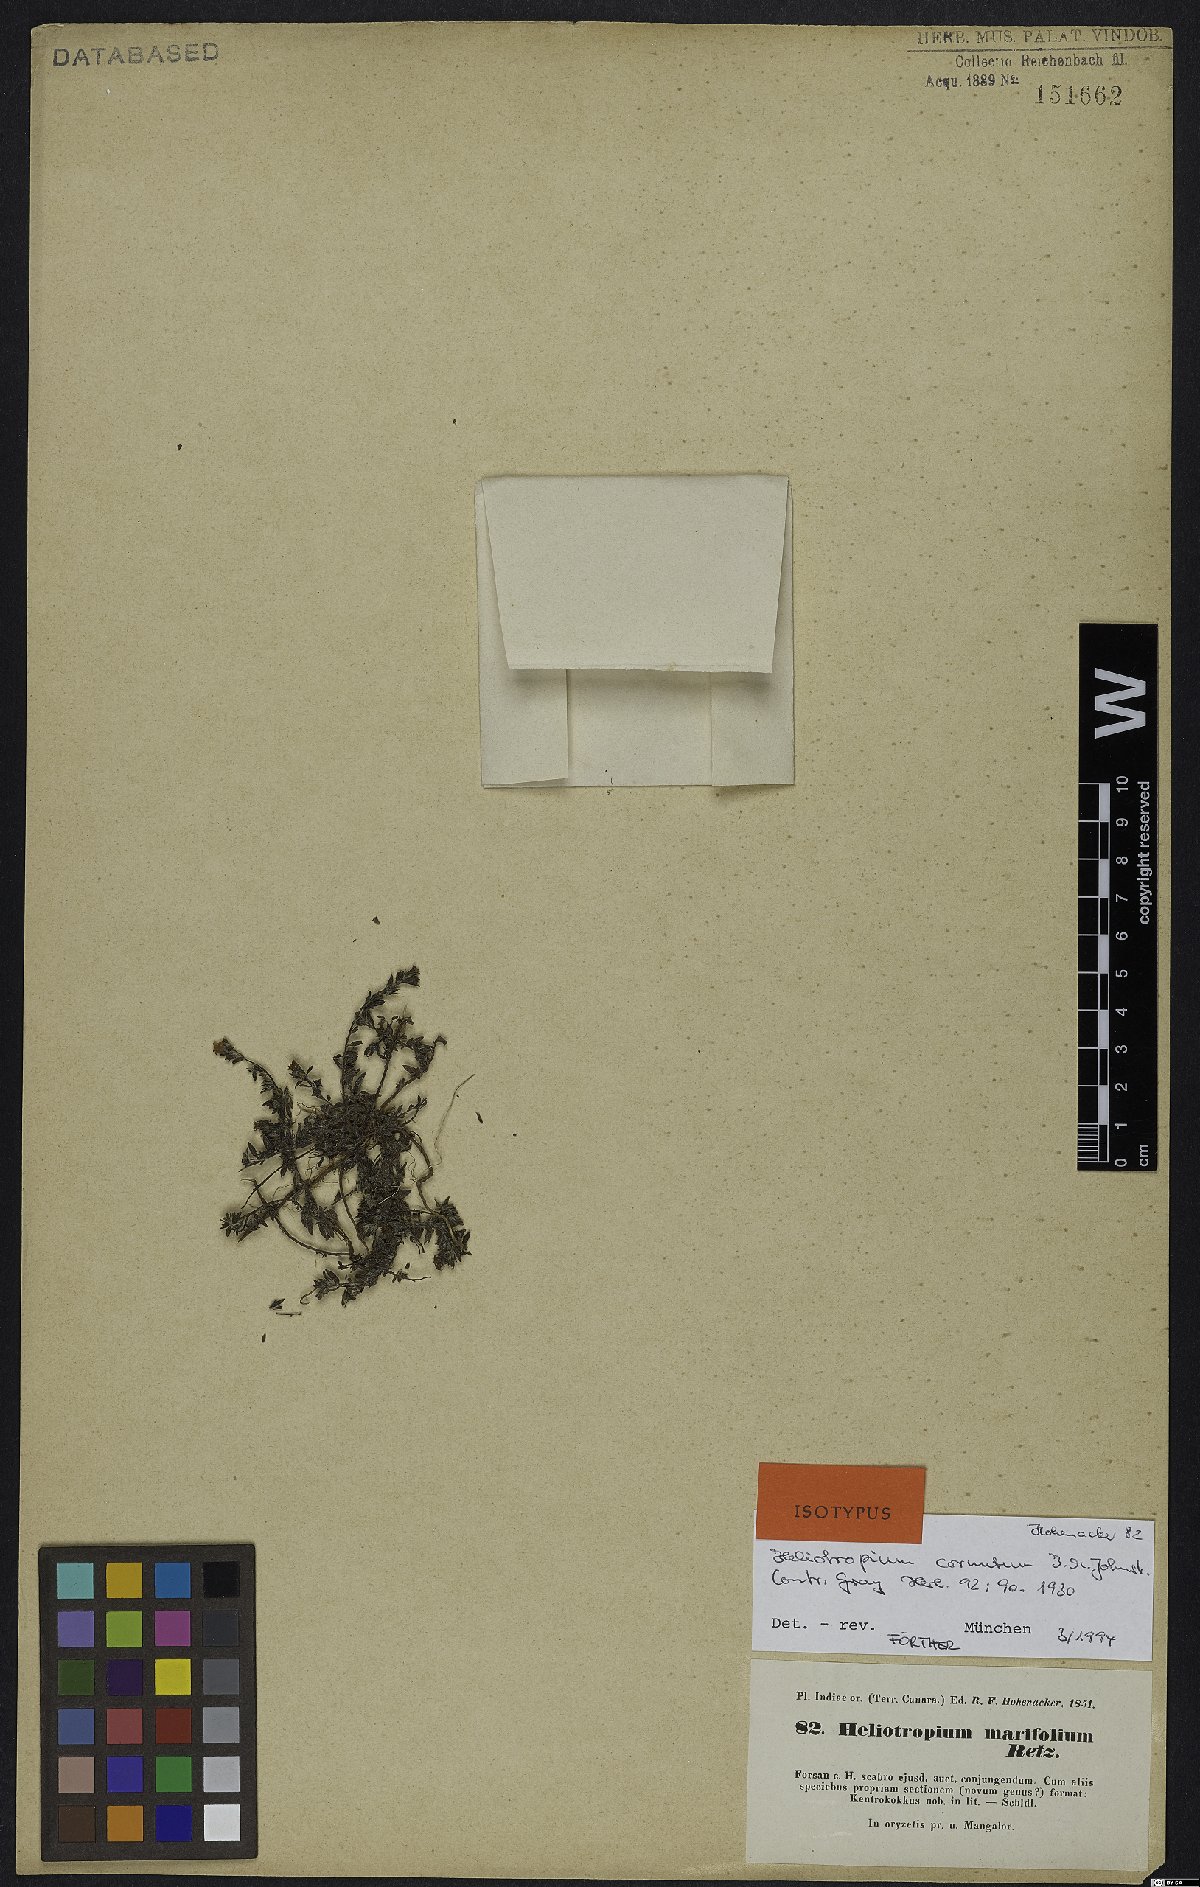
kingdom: Plantae
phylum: Tracheophyta
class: Magnoliopsida
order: Boraginales
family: Heliotropiaceae
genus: Euploca
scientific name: Euploca cornuta
